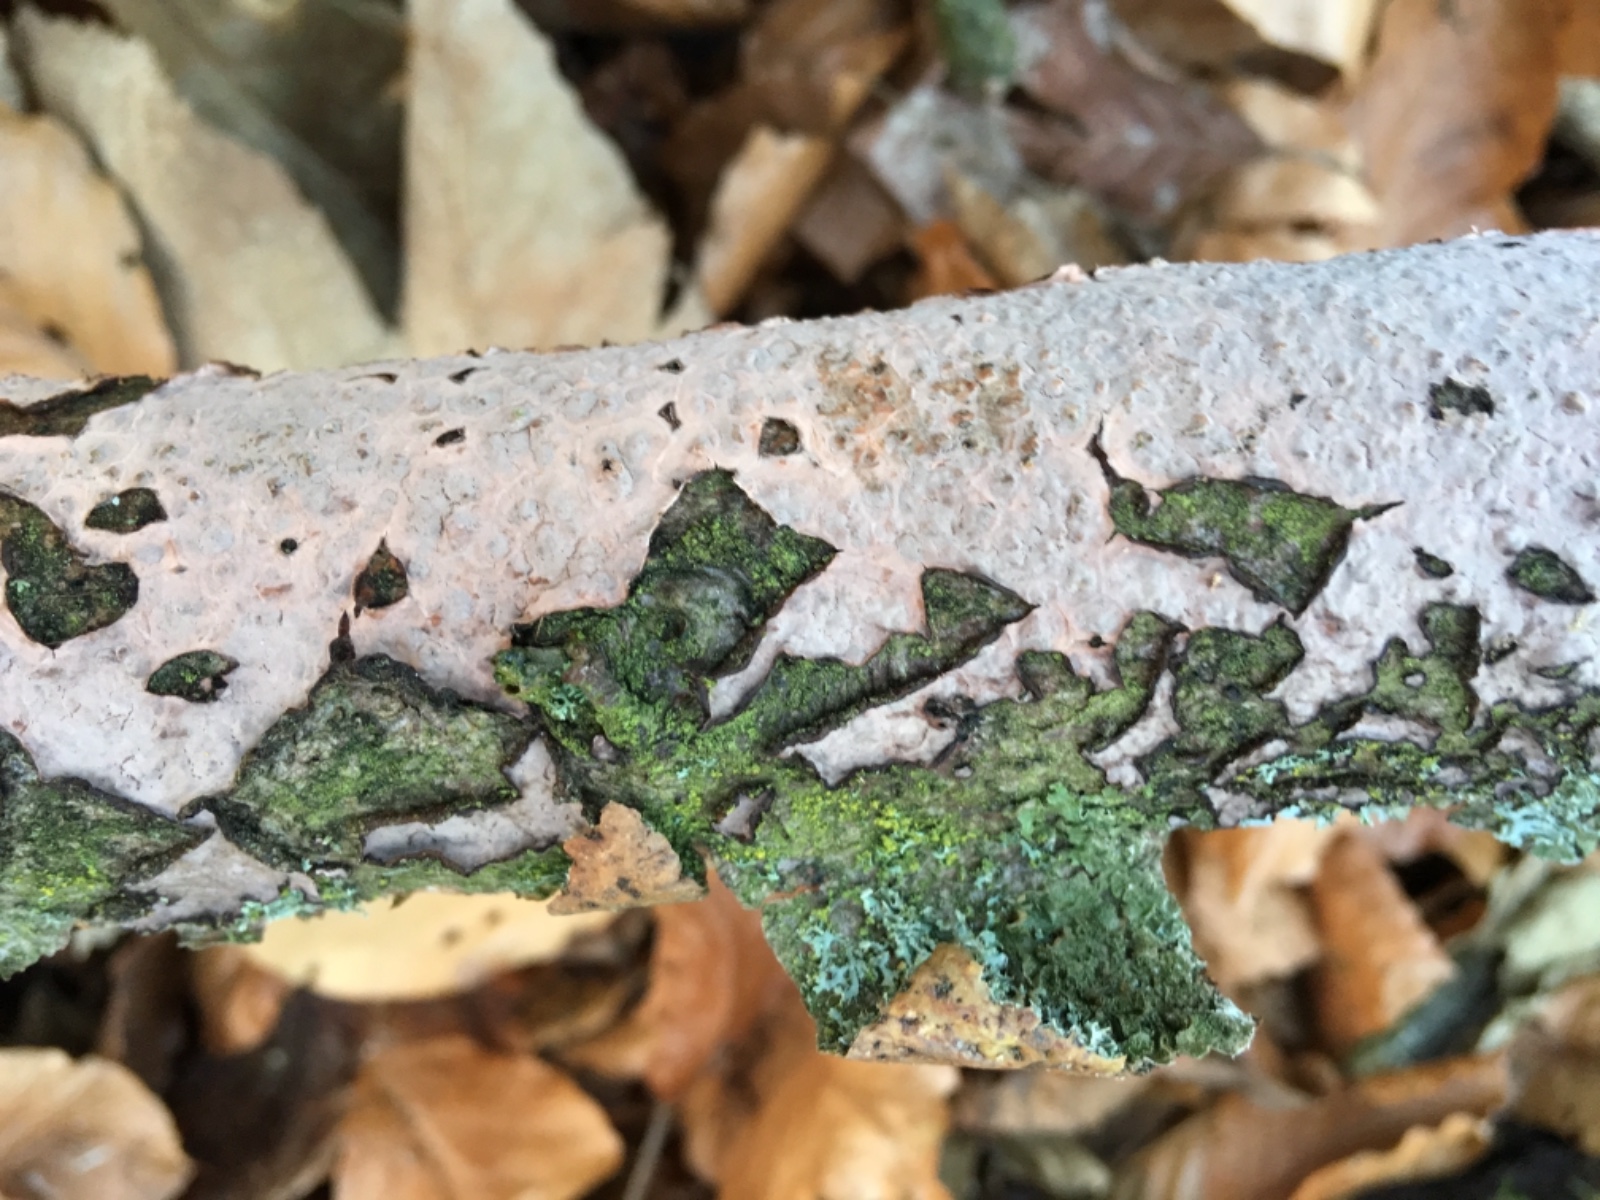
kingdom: Fungi
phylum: Basidiomycota
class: Agaricomycetes
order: Russulales
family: Peniophoraceae
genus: Peniophora
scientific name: Peniophora quercina
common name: ege-voksskind
